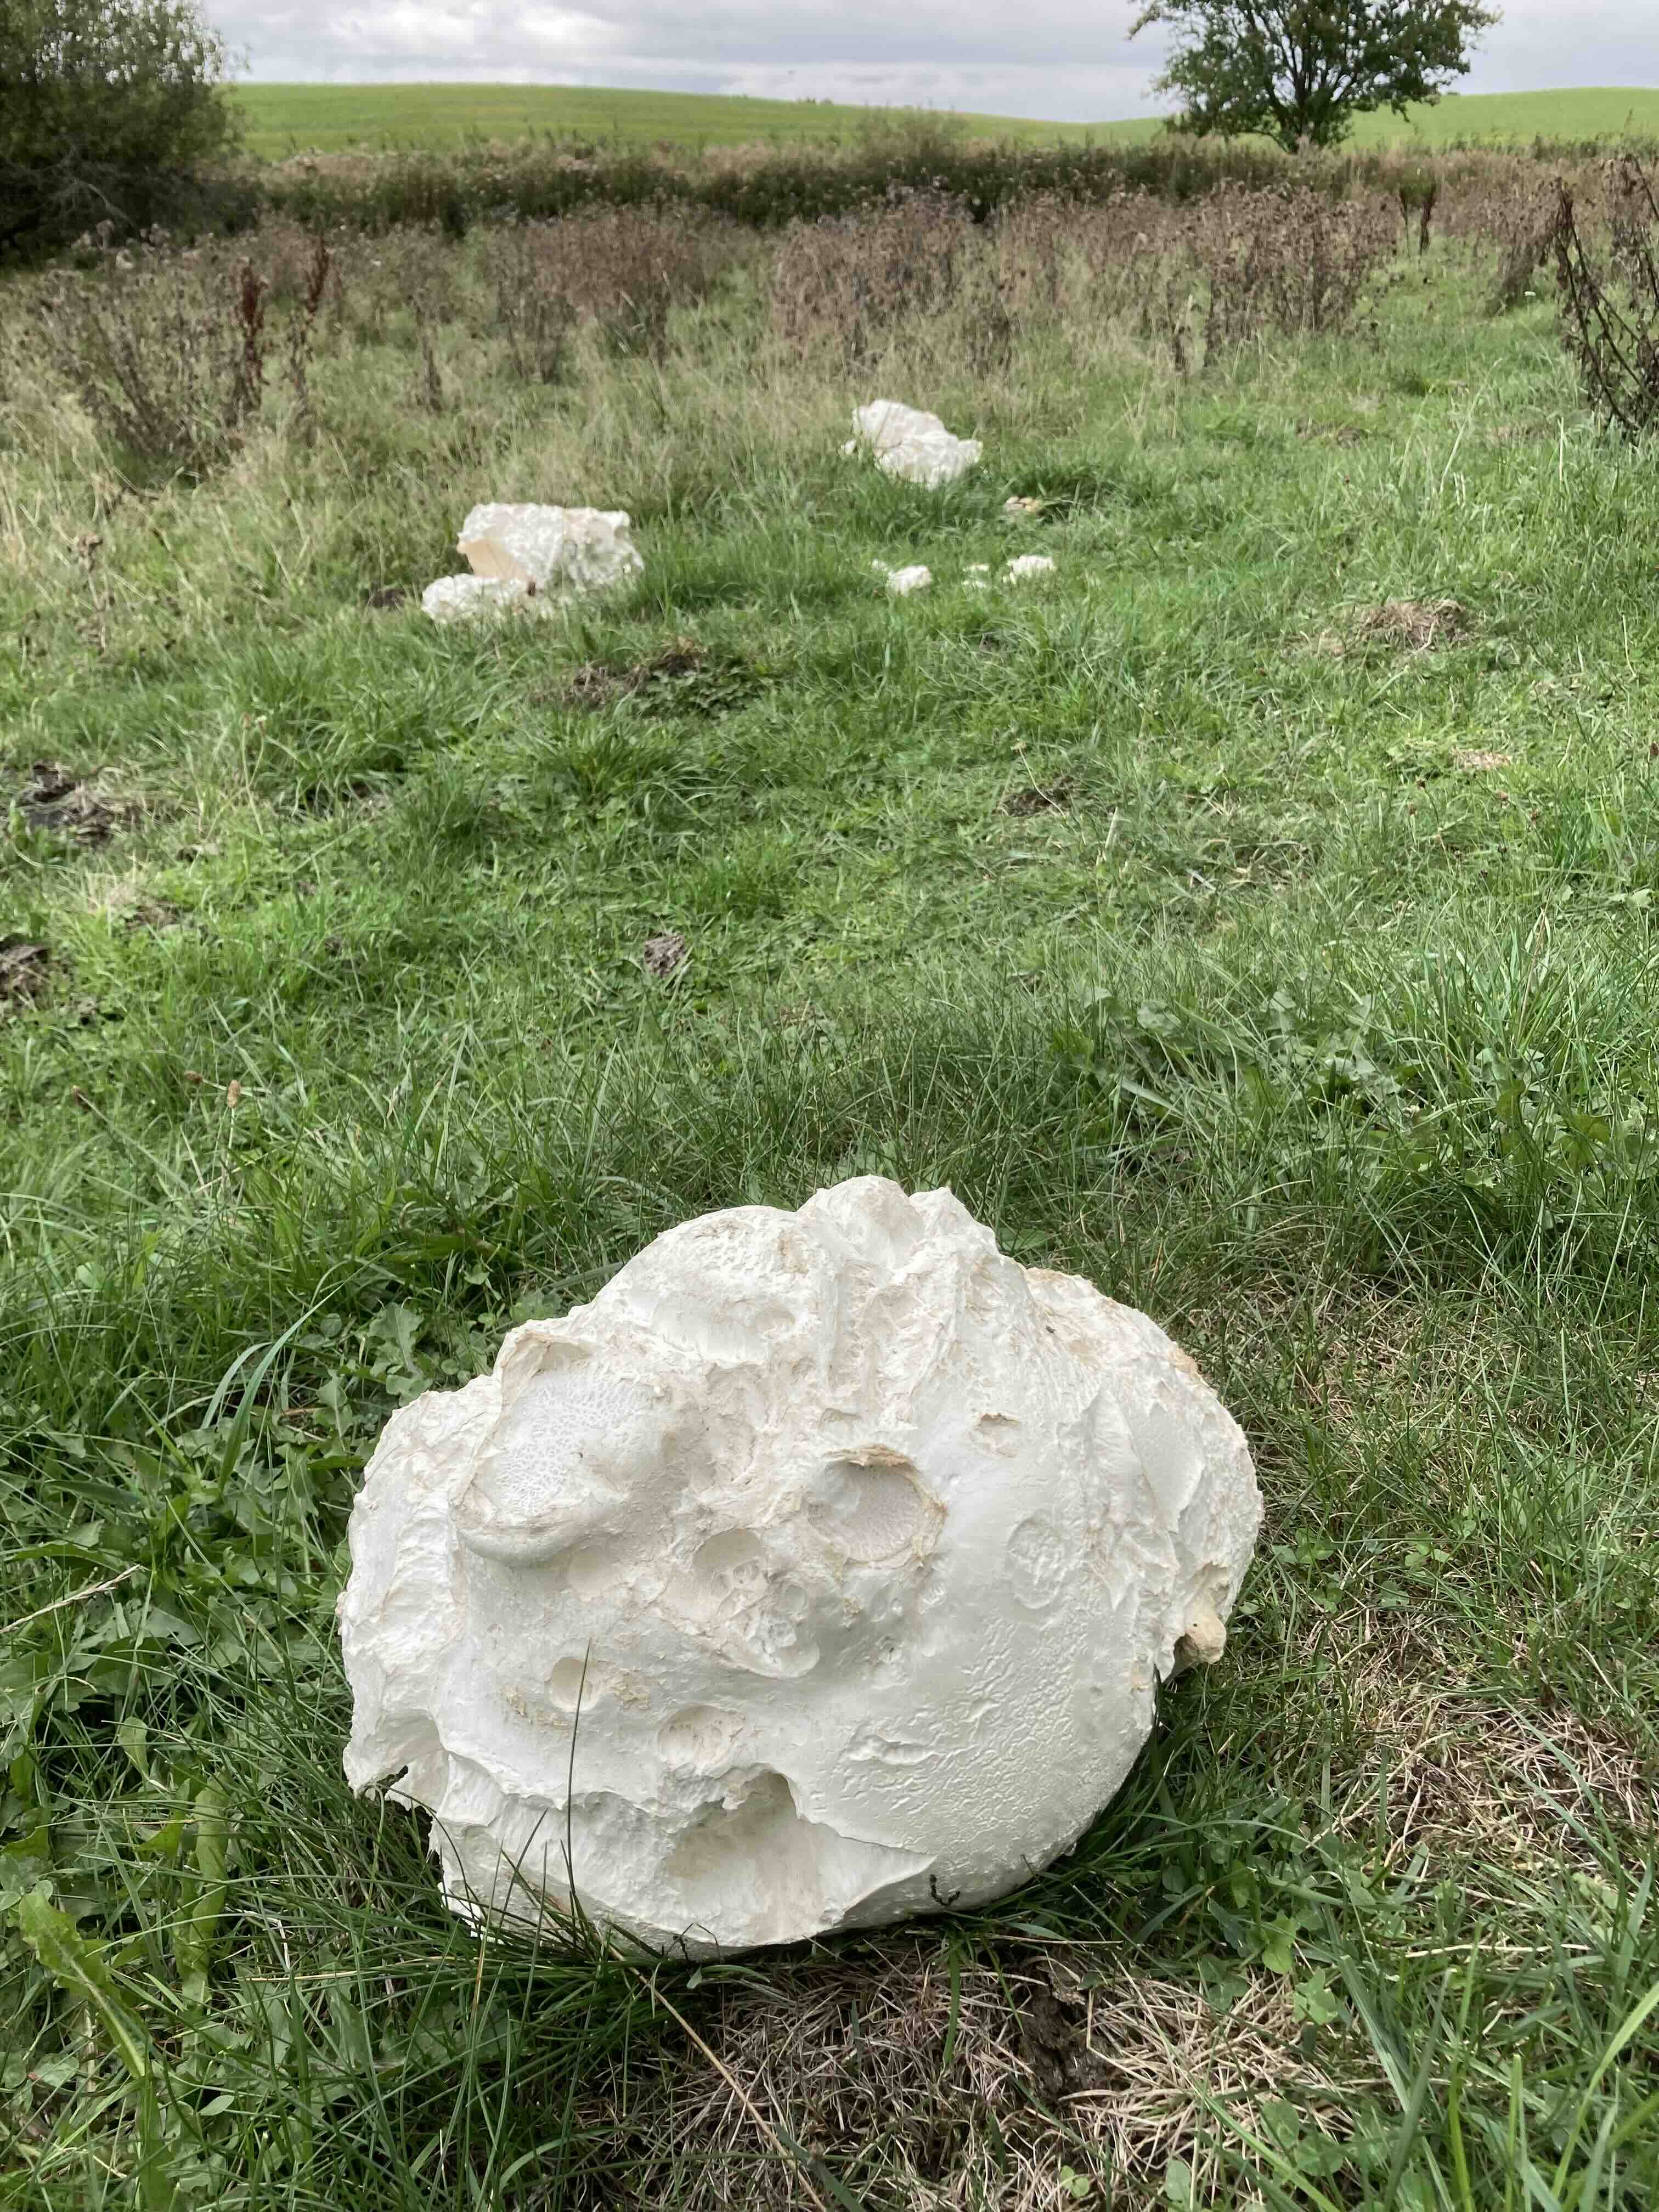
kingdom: Fungi
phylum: Basidiomycota
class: Agaricomycetes
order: Agaricales
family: Lycoperdaceae
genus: Calvatia
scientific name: Calvatia gigantea
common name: kæmpestøvbold
